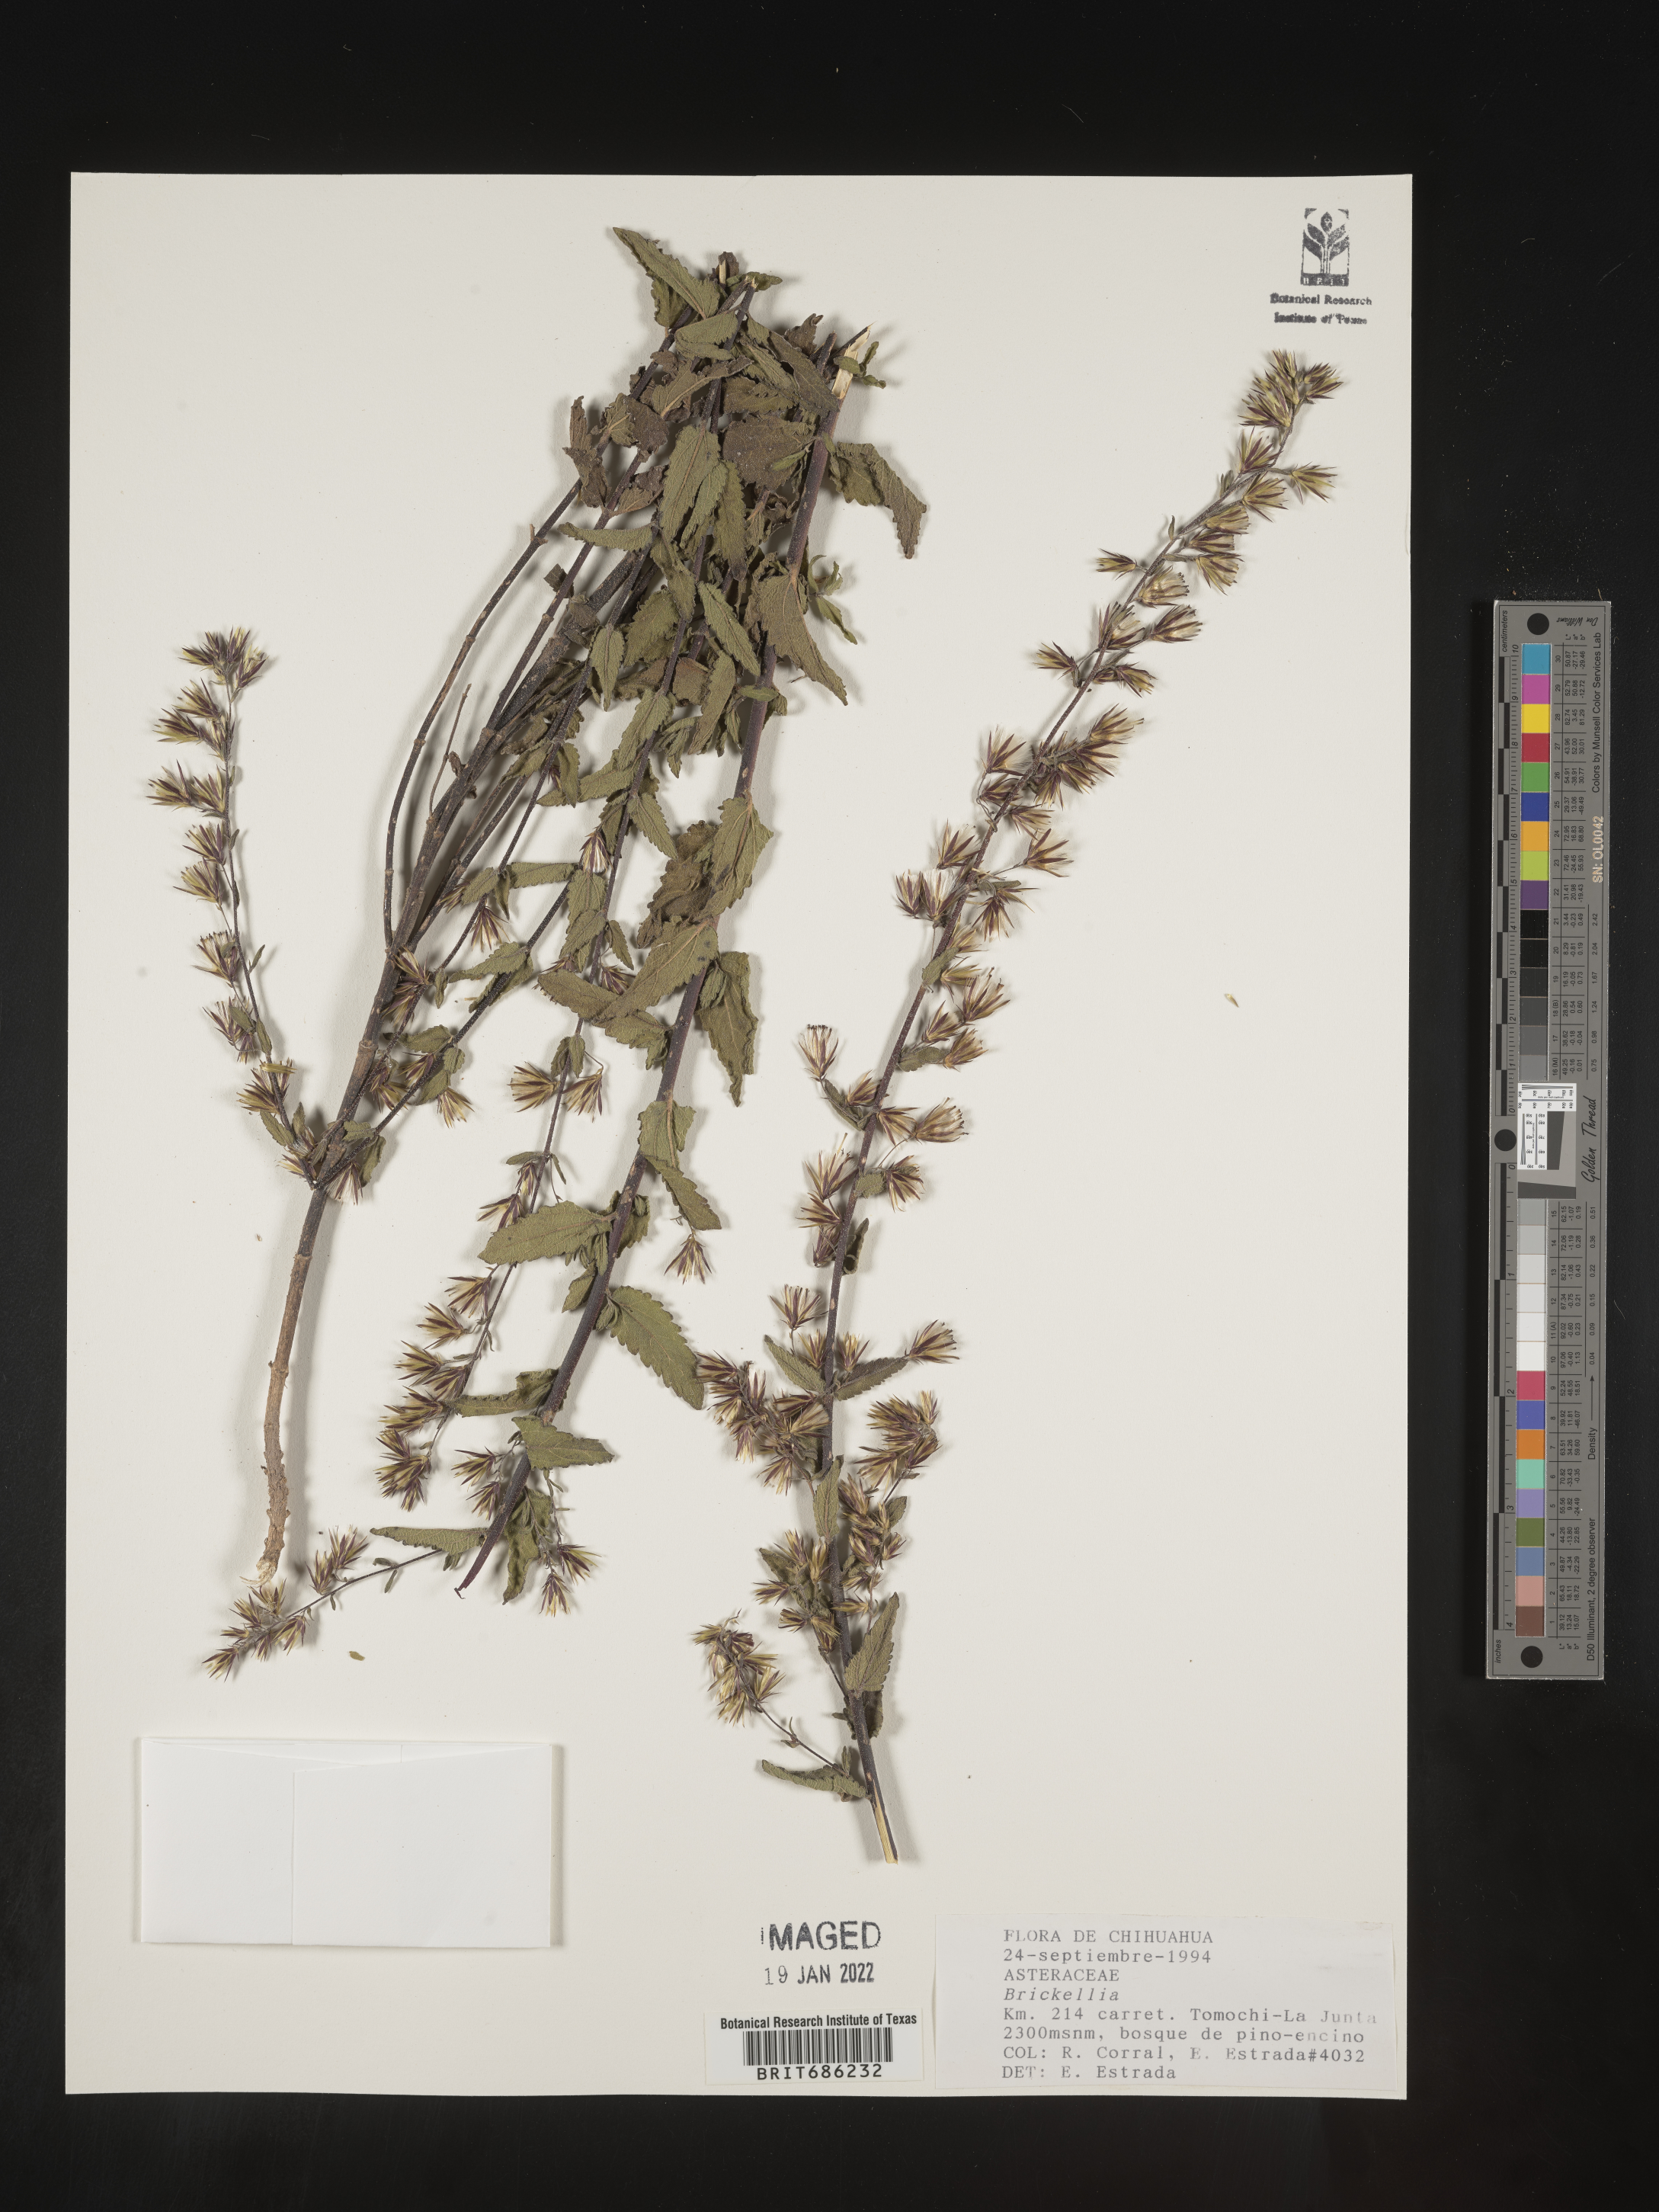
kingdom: Plantae
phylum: Tracheophyta
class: Magnoliopsida
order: Asterales
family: Asteraceae
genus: Brickellia
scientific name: Brickellia
